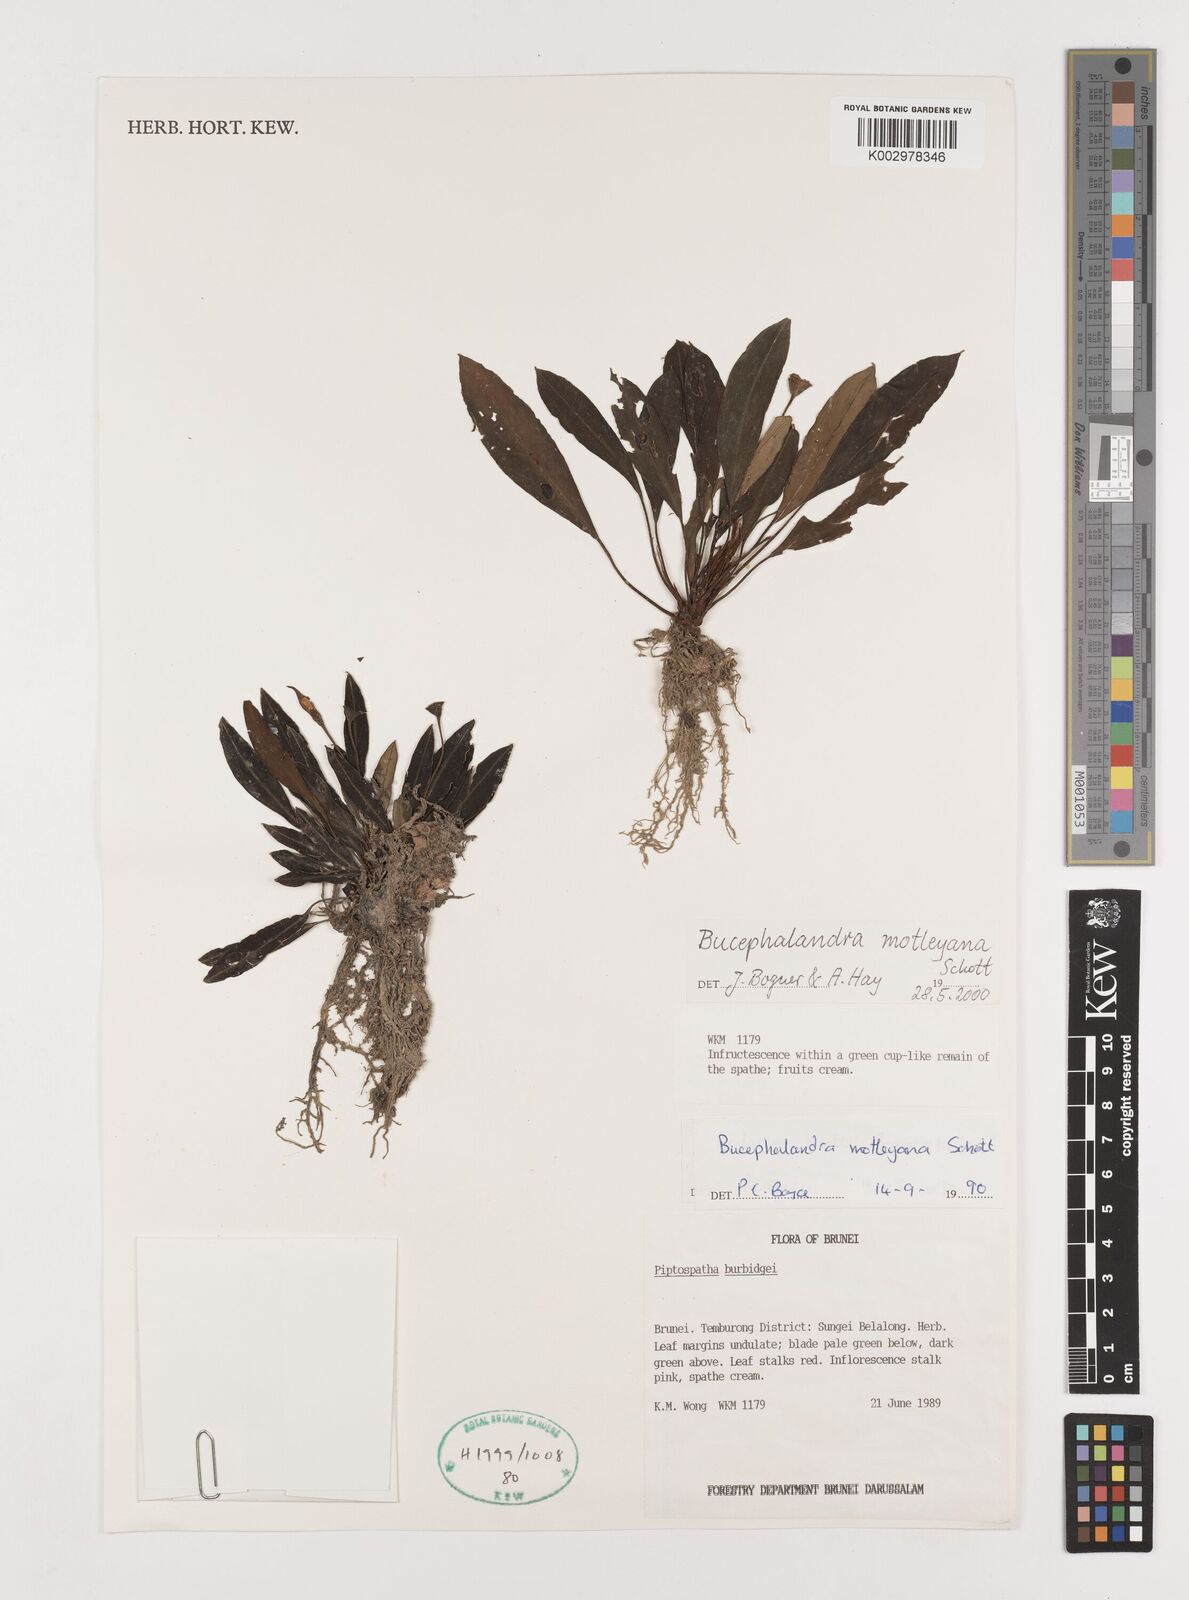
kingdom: Plantae
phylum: Tracheophyta
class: Liliopsida
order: Alismatales
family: Araceae
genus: Bucephalandra
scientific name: Bucephalandra motleyana
